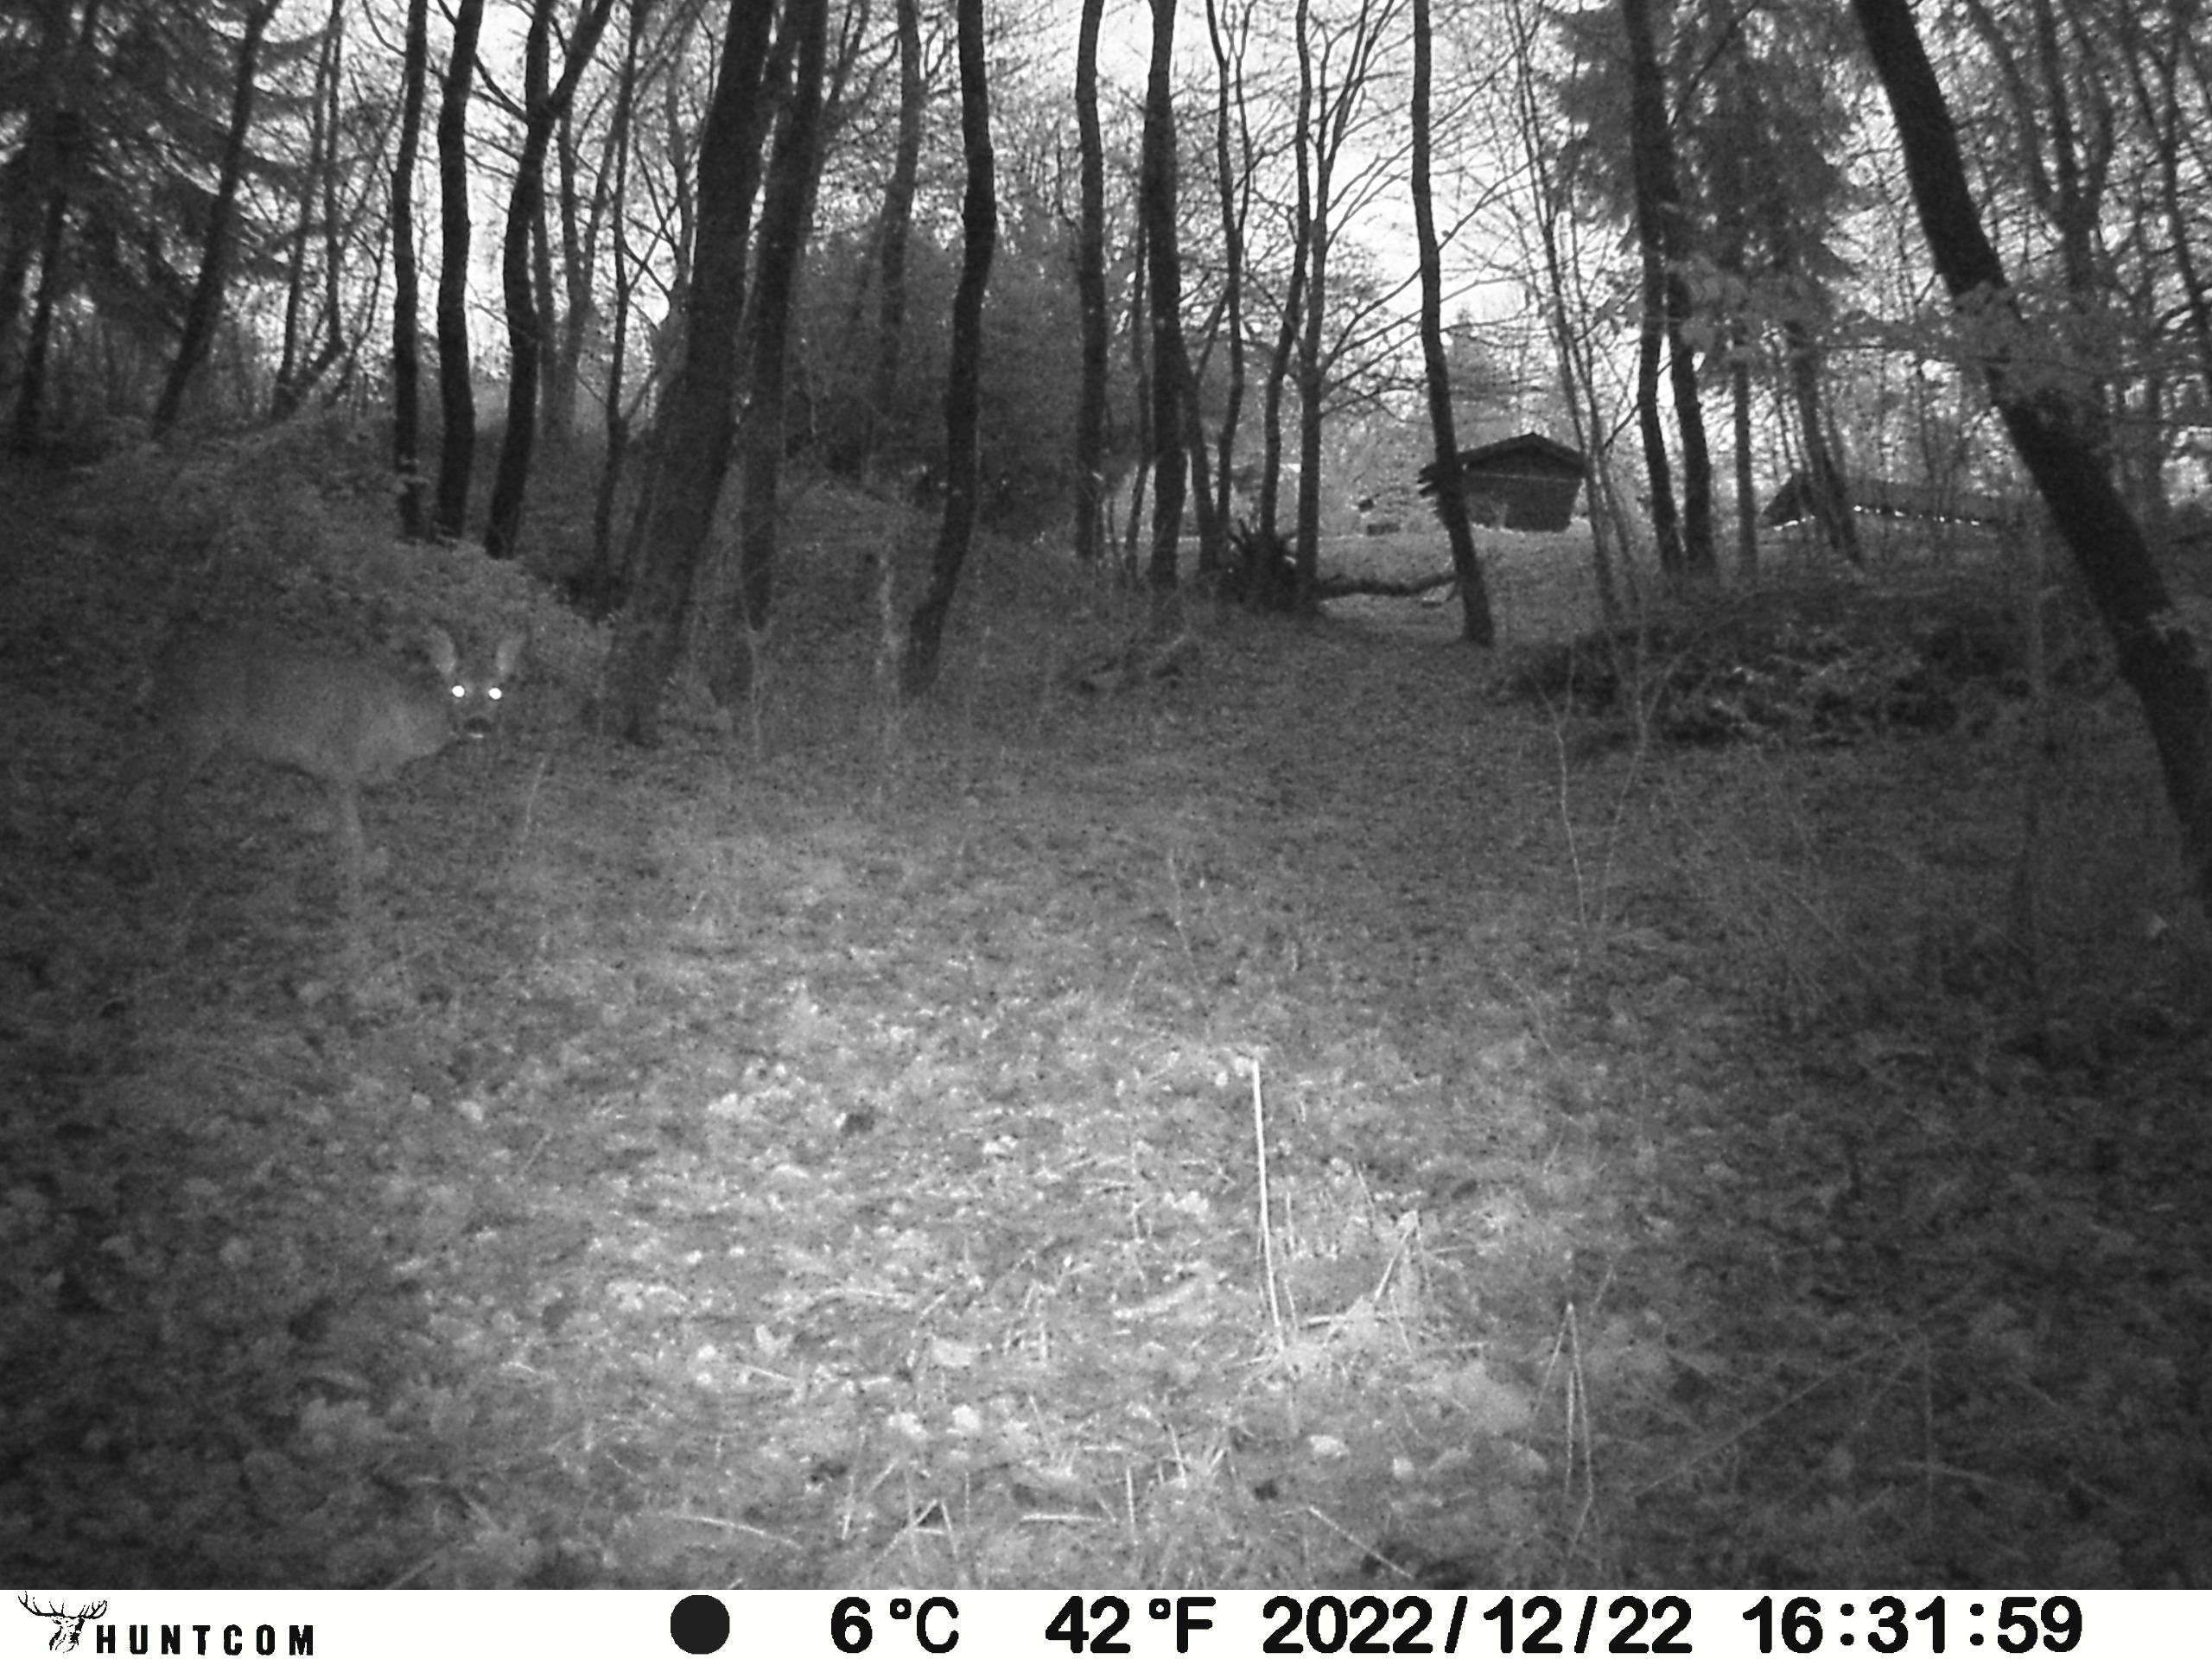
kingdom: Animalia
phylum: Chordata
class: Mammalia
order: Artiodactyla
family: Cervidae
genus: Capreolus
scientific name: Capreolus capreolus
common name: Rådyr
